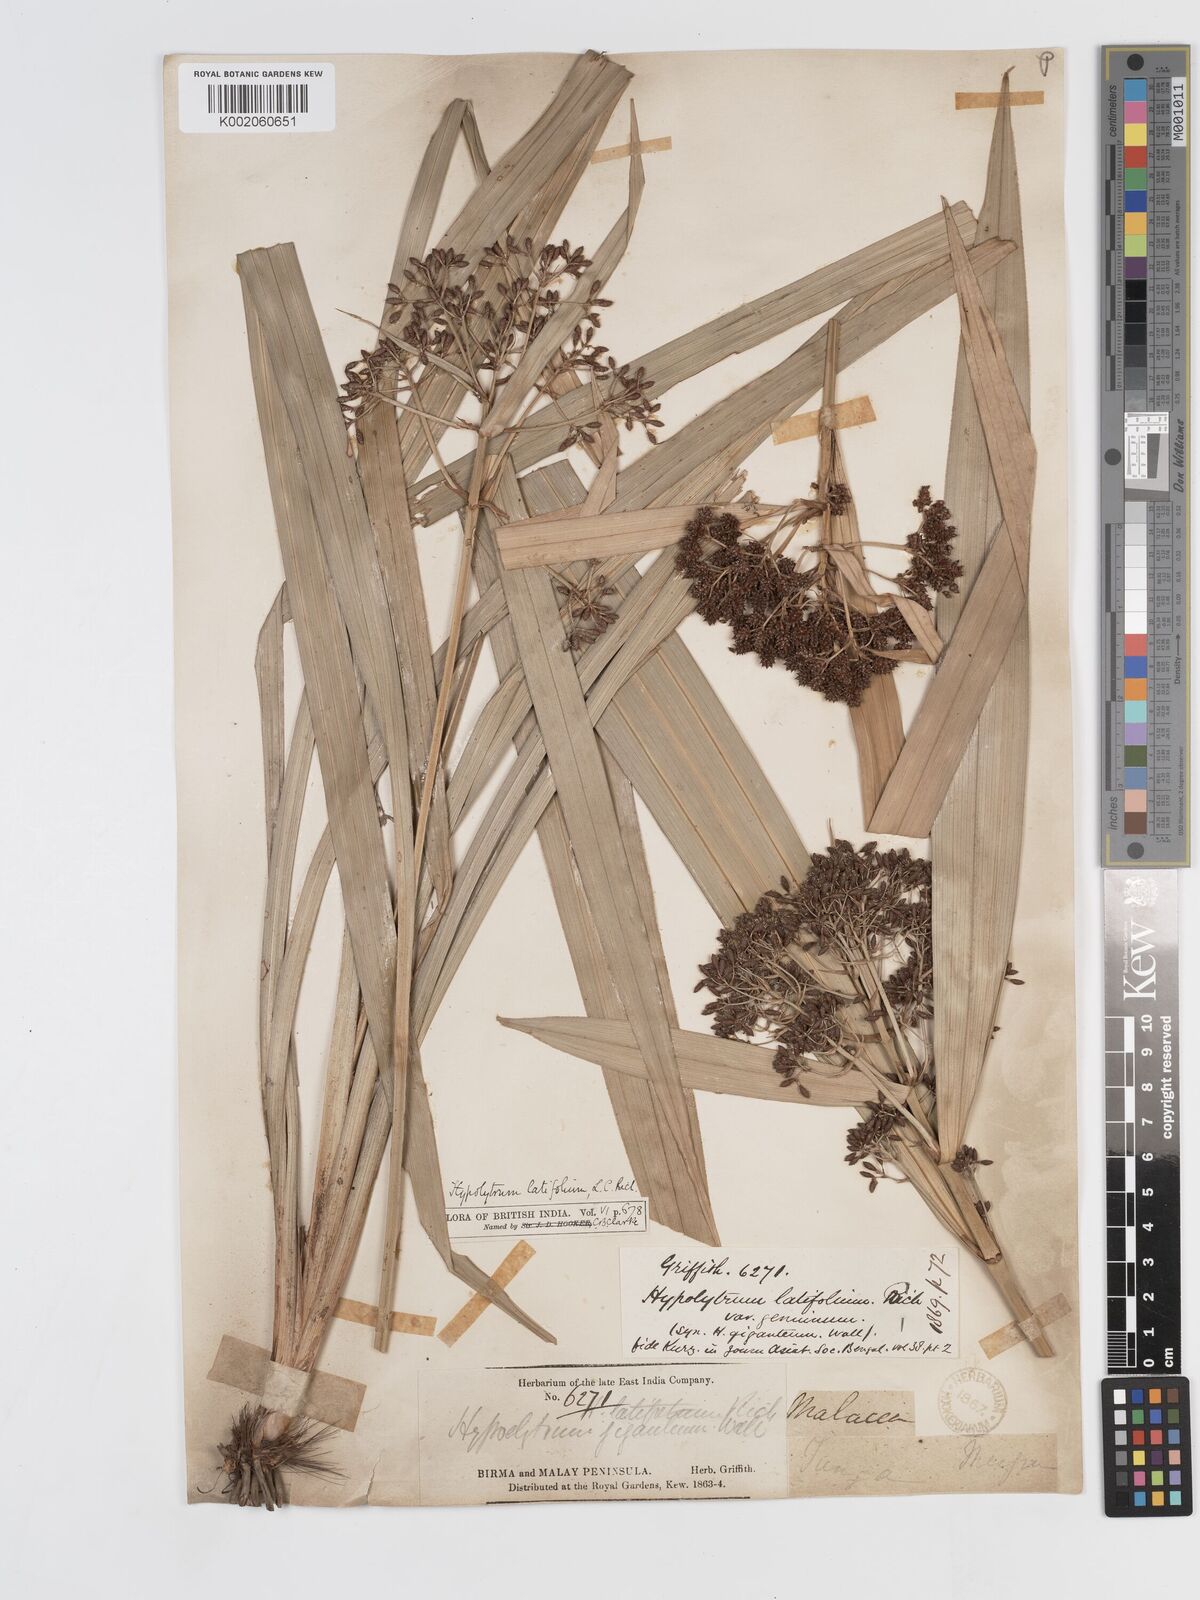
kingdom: Plantae
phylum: Tracheophyta
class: Liliopsida
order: Poales
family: Cyperaceae
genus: Hypolytrum
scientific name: Hypolytrum nemorum
